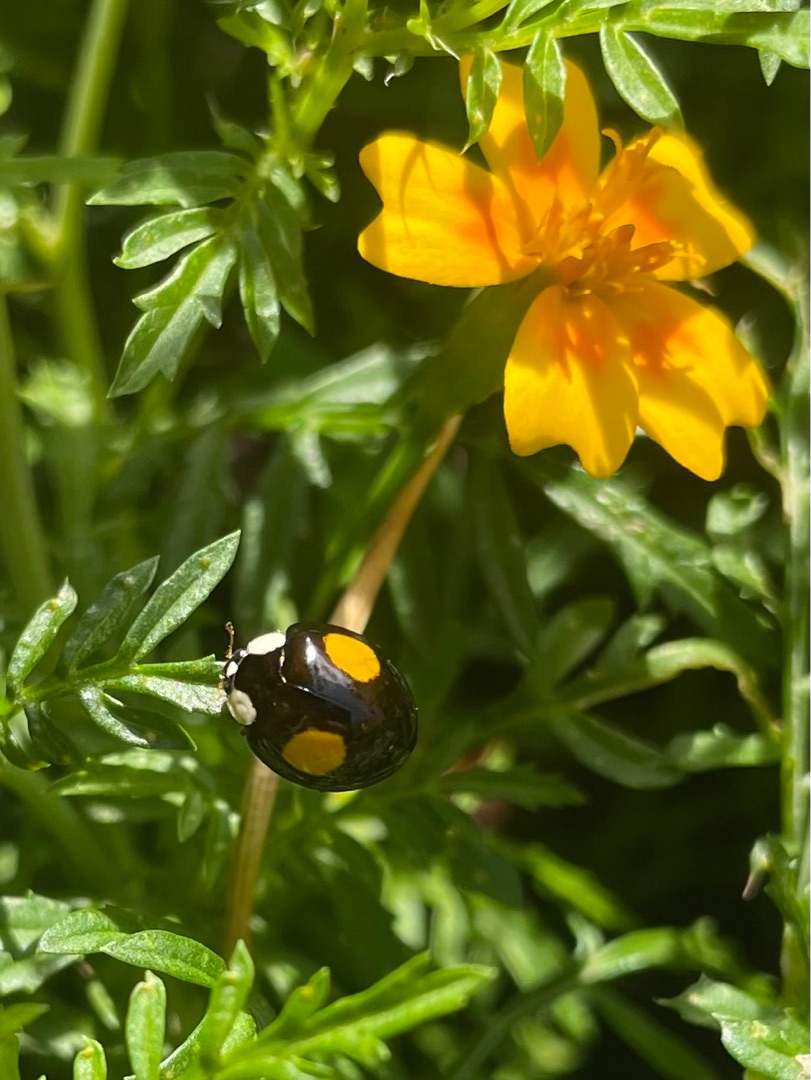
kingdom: Animalia
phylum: Arthropoda
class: Insecta
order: Coleoptera
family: Coccinellidae
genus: Harmonia
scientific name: Harmonia axyridis
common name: Harlekinmariehøne
